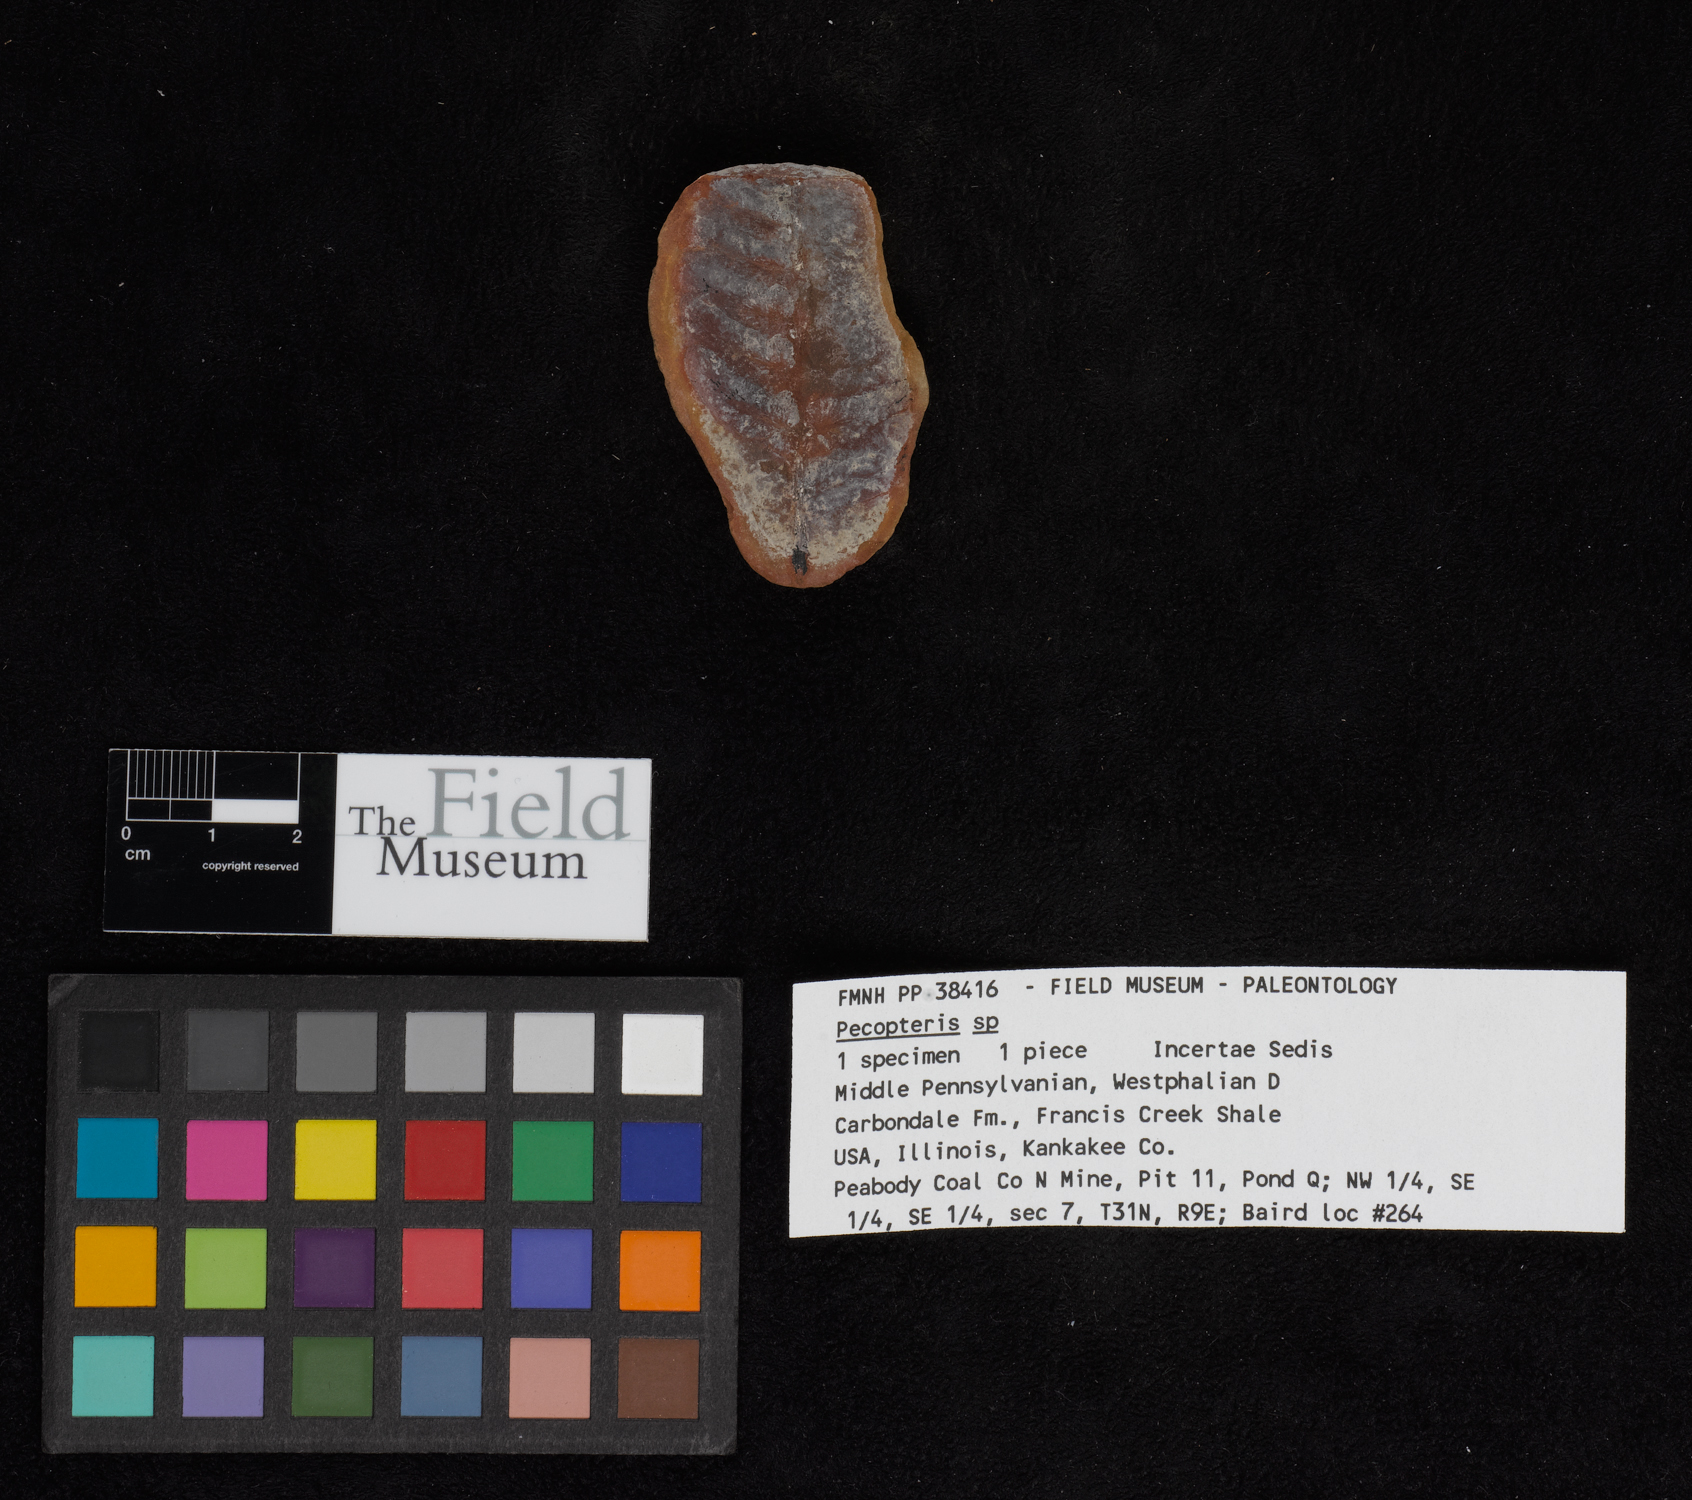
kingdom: Plantae
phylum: Tracheophyta
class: Polypodiopsida
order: Marattiales
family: Asterothecaceae
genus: Pecopteris
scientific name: Pecopteris
